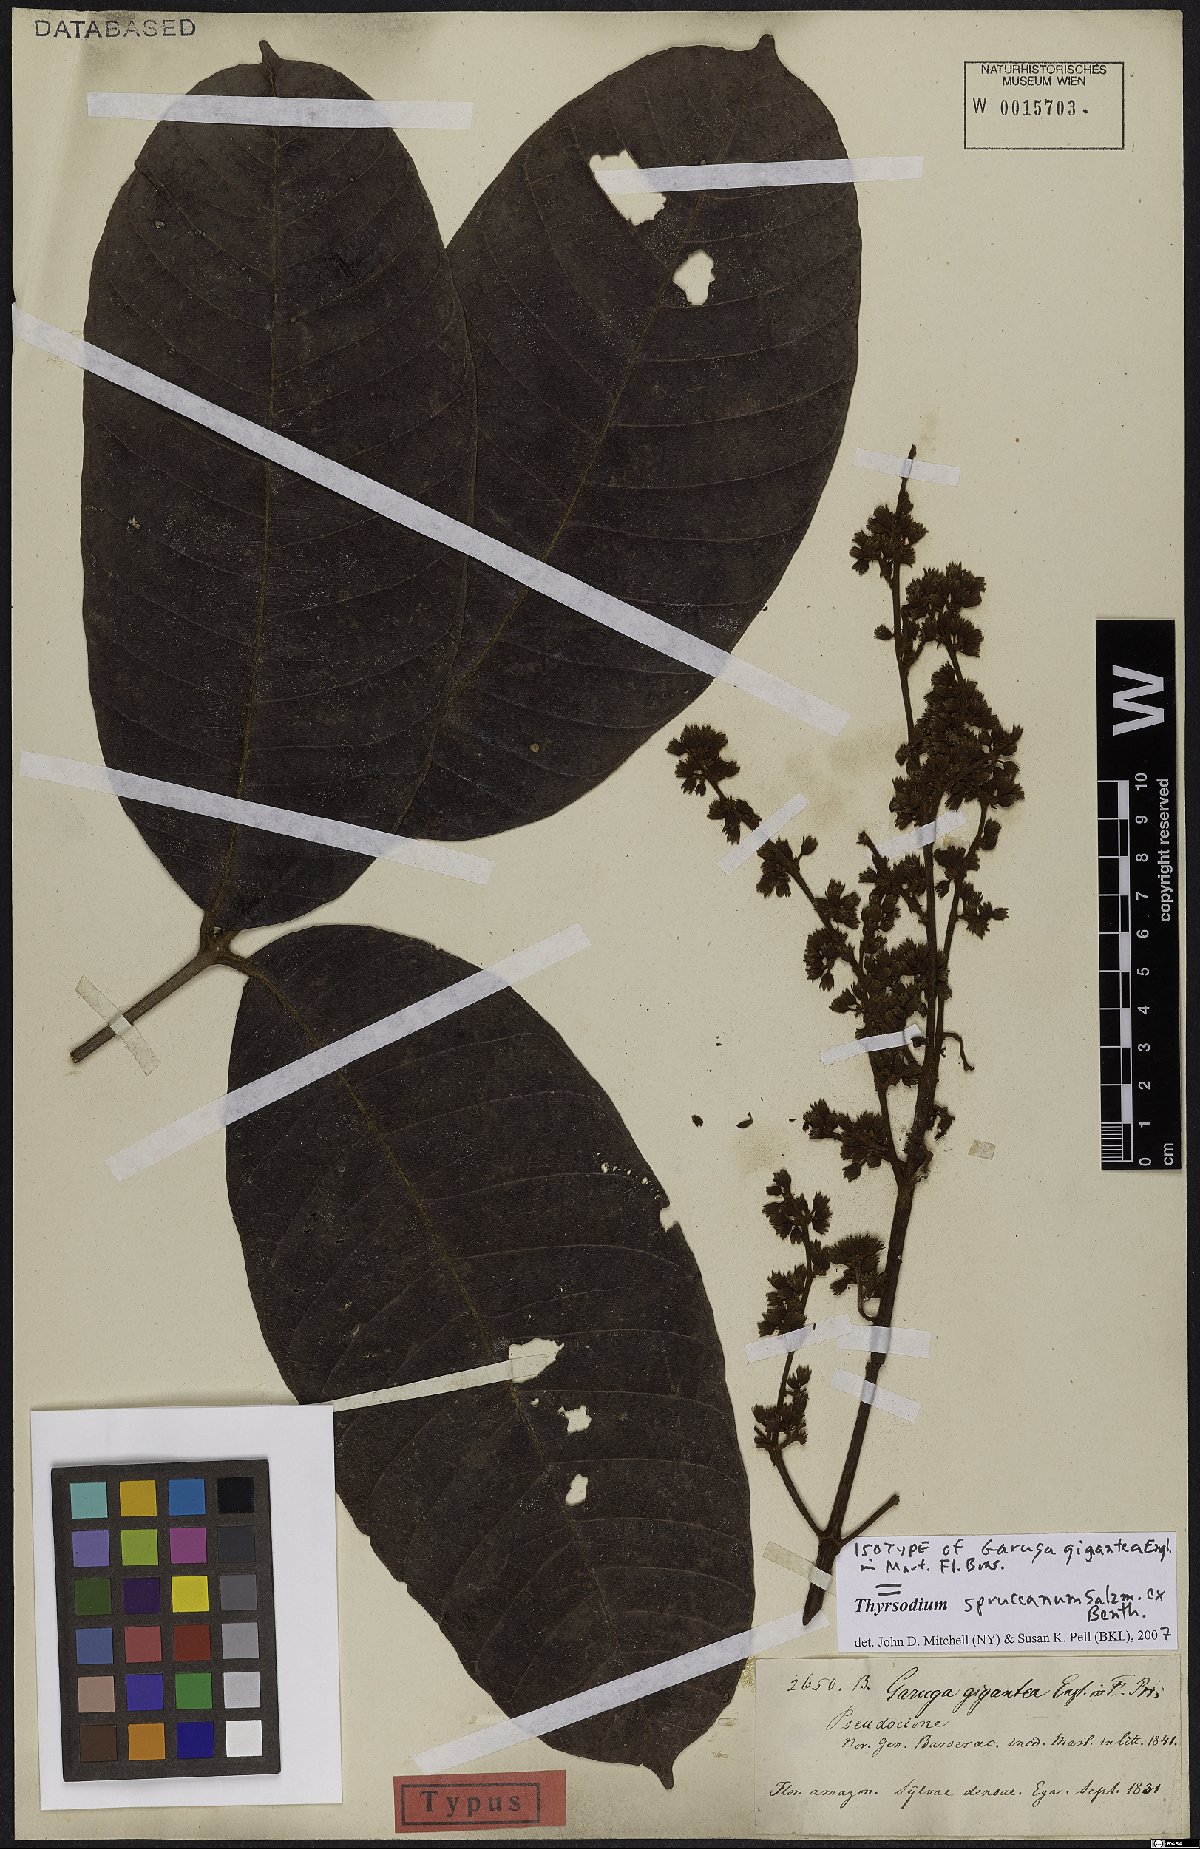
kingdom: Plantae
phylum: Tracheophyta
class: Magnoliopsida
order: Sapindales
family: Anacardiaceae
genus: Thyrsodium
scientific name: Thyrsodium spruceanum
